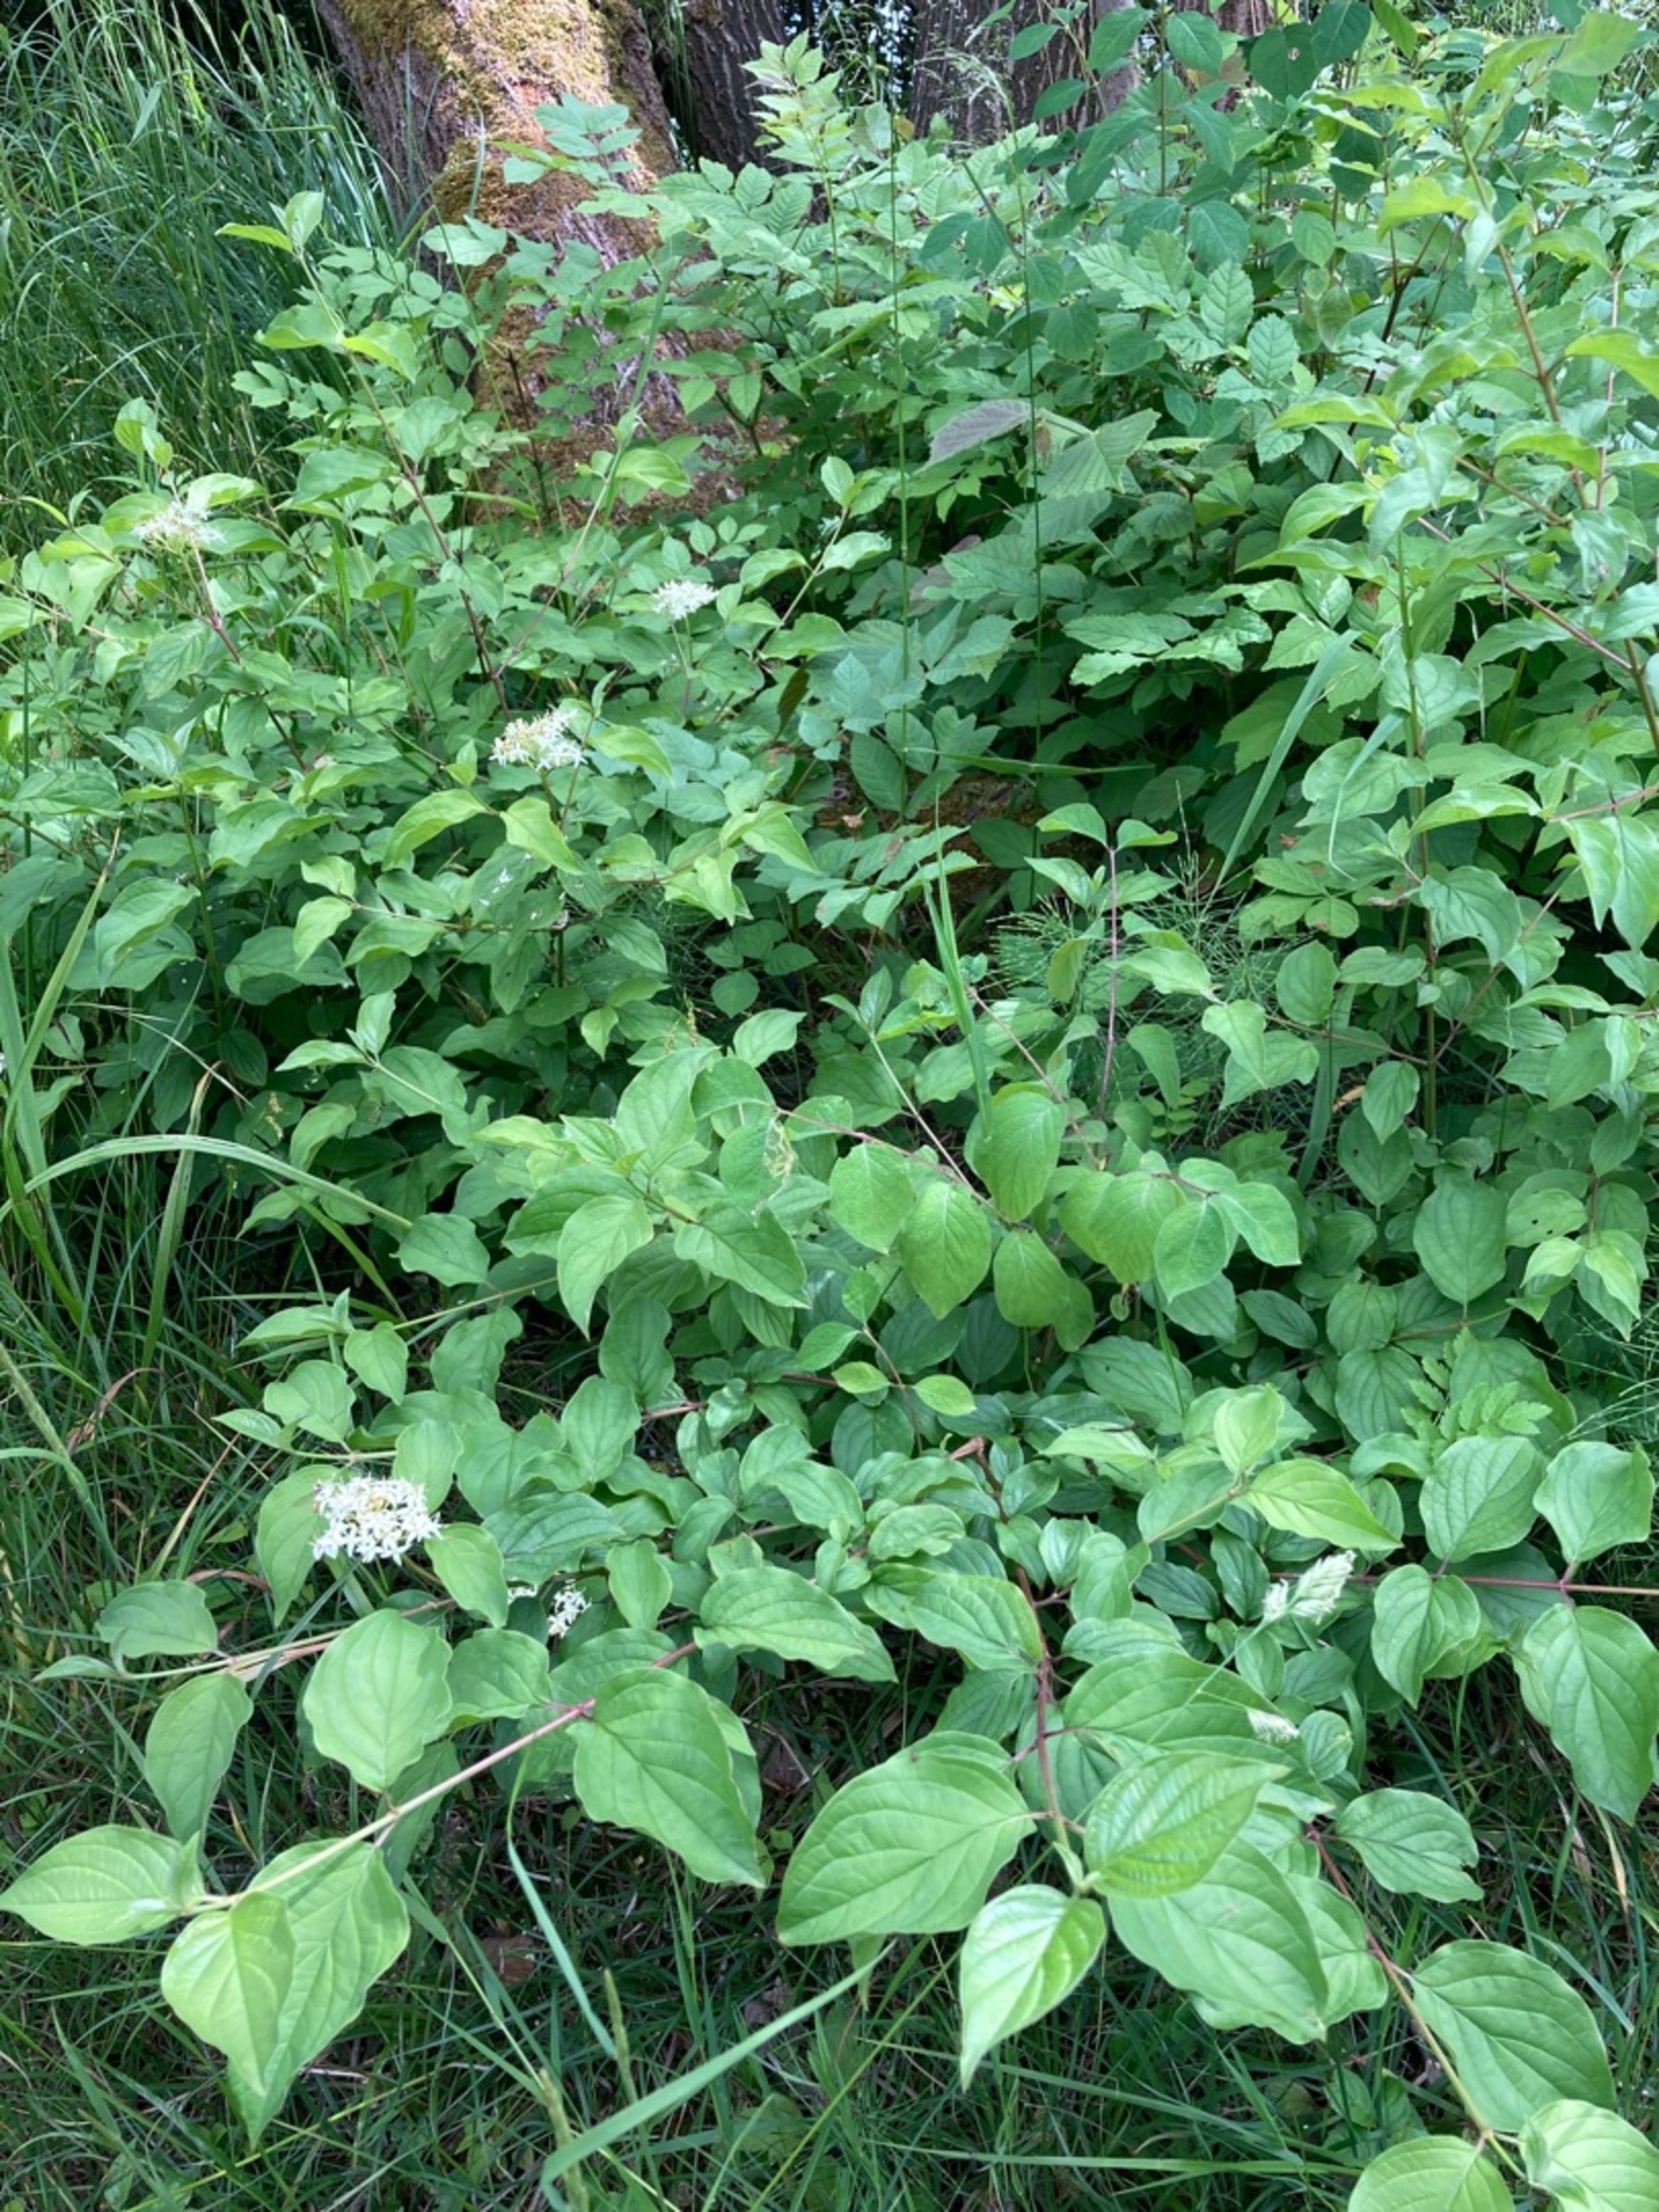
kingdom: Plantae
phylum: Tracheophyta
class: Magnoliopsida
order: Cornales
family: Cornaceae
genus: Cornus
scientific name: Cornus sanguinea
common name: Rød kornel
